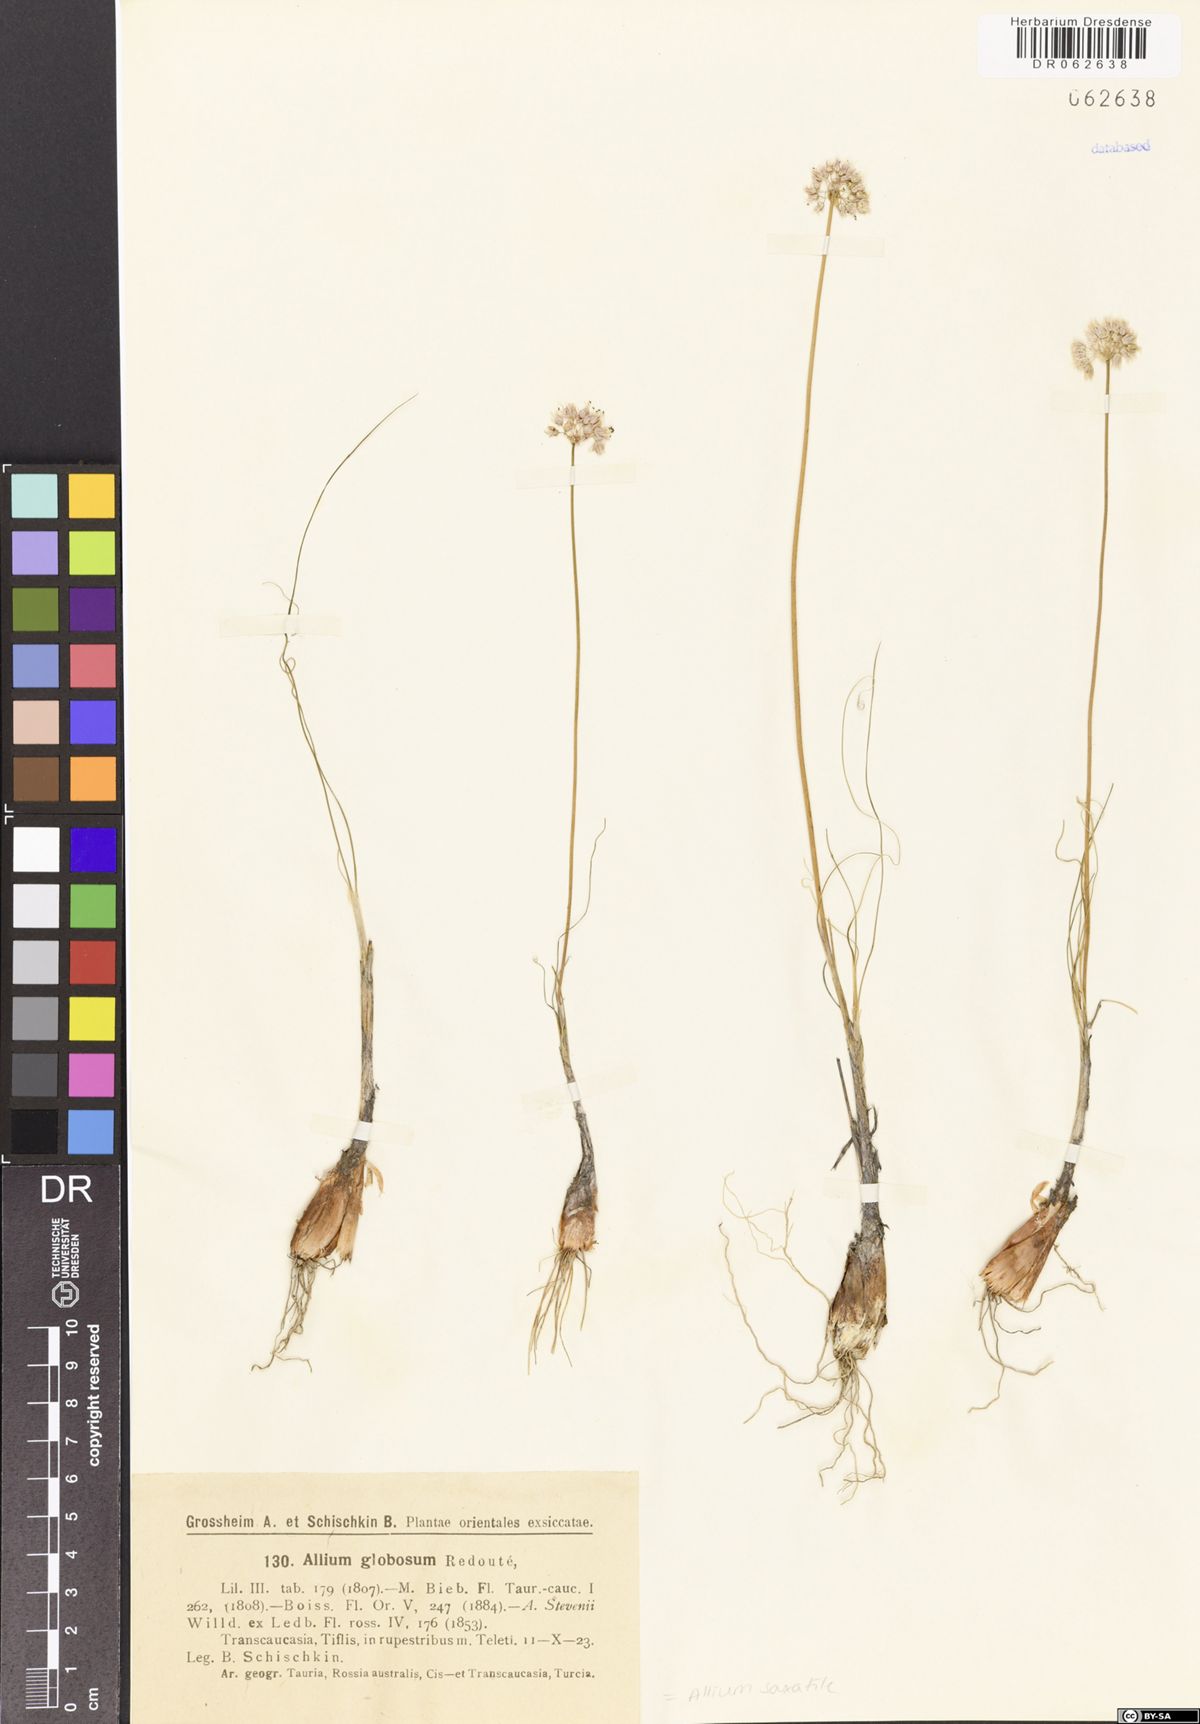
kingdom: Plantae
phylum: Tracheophyta
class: Liliopsida
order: Asparagales
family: Amaryllidaceae
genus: Allium
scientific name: Allium saxatile
